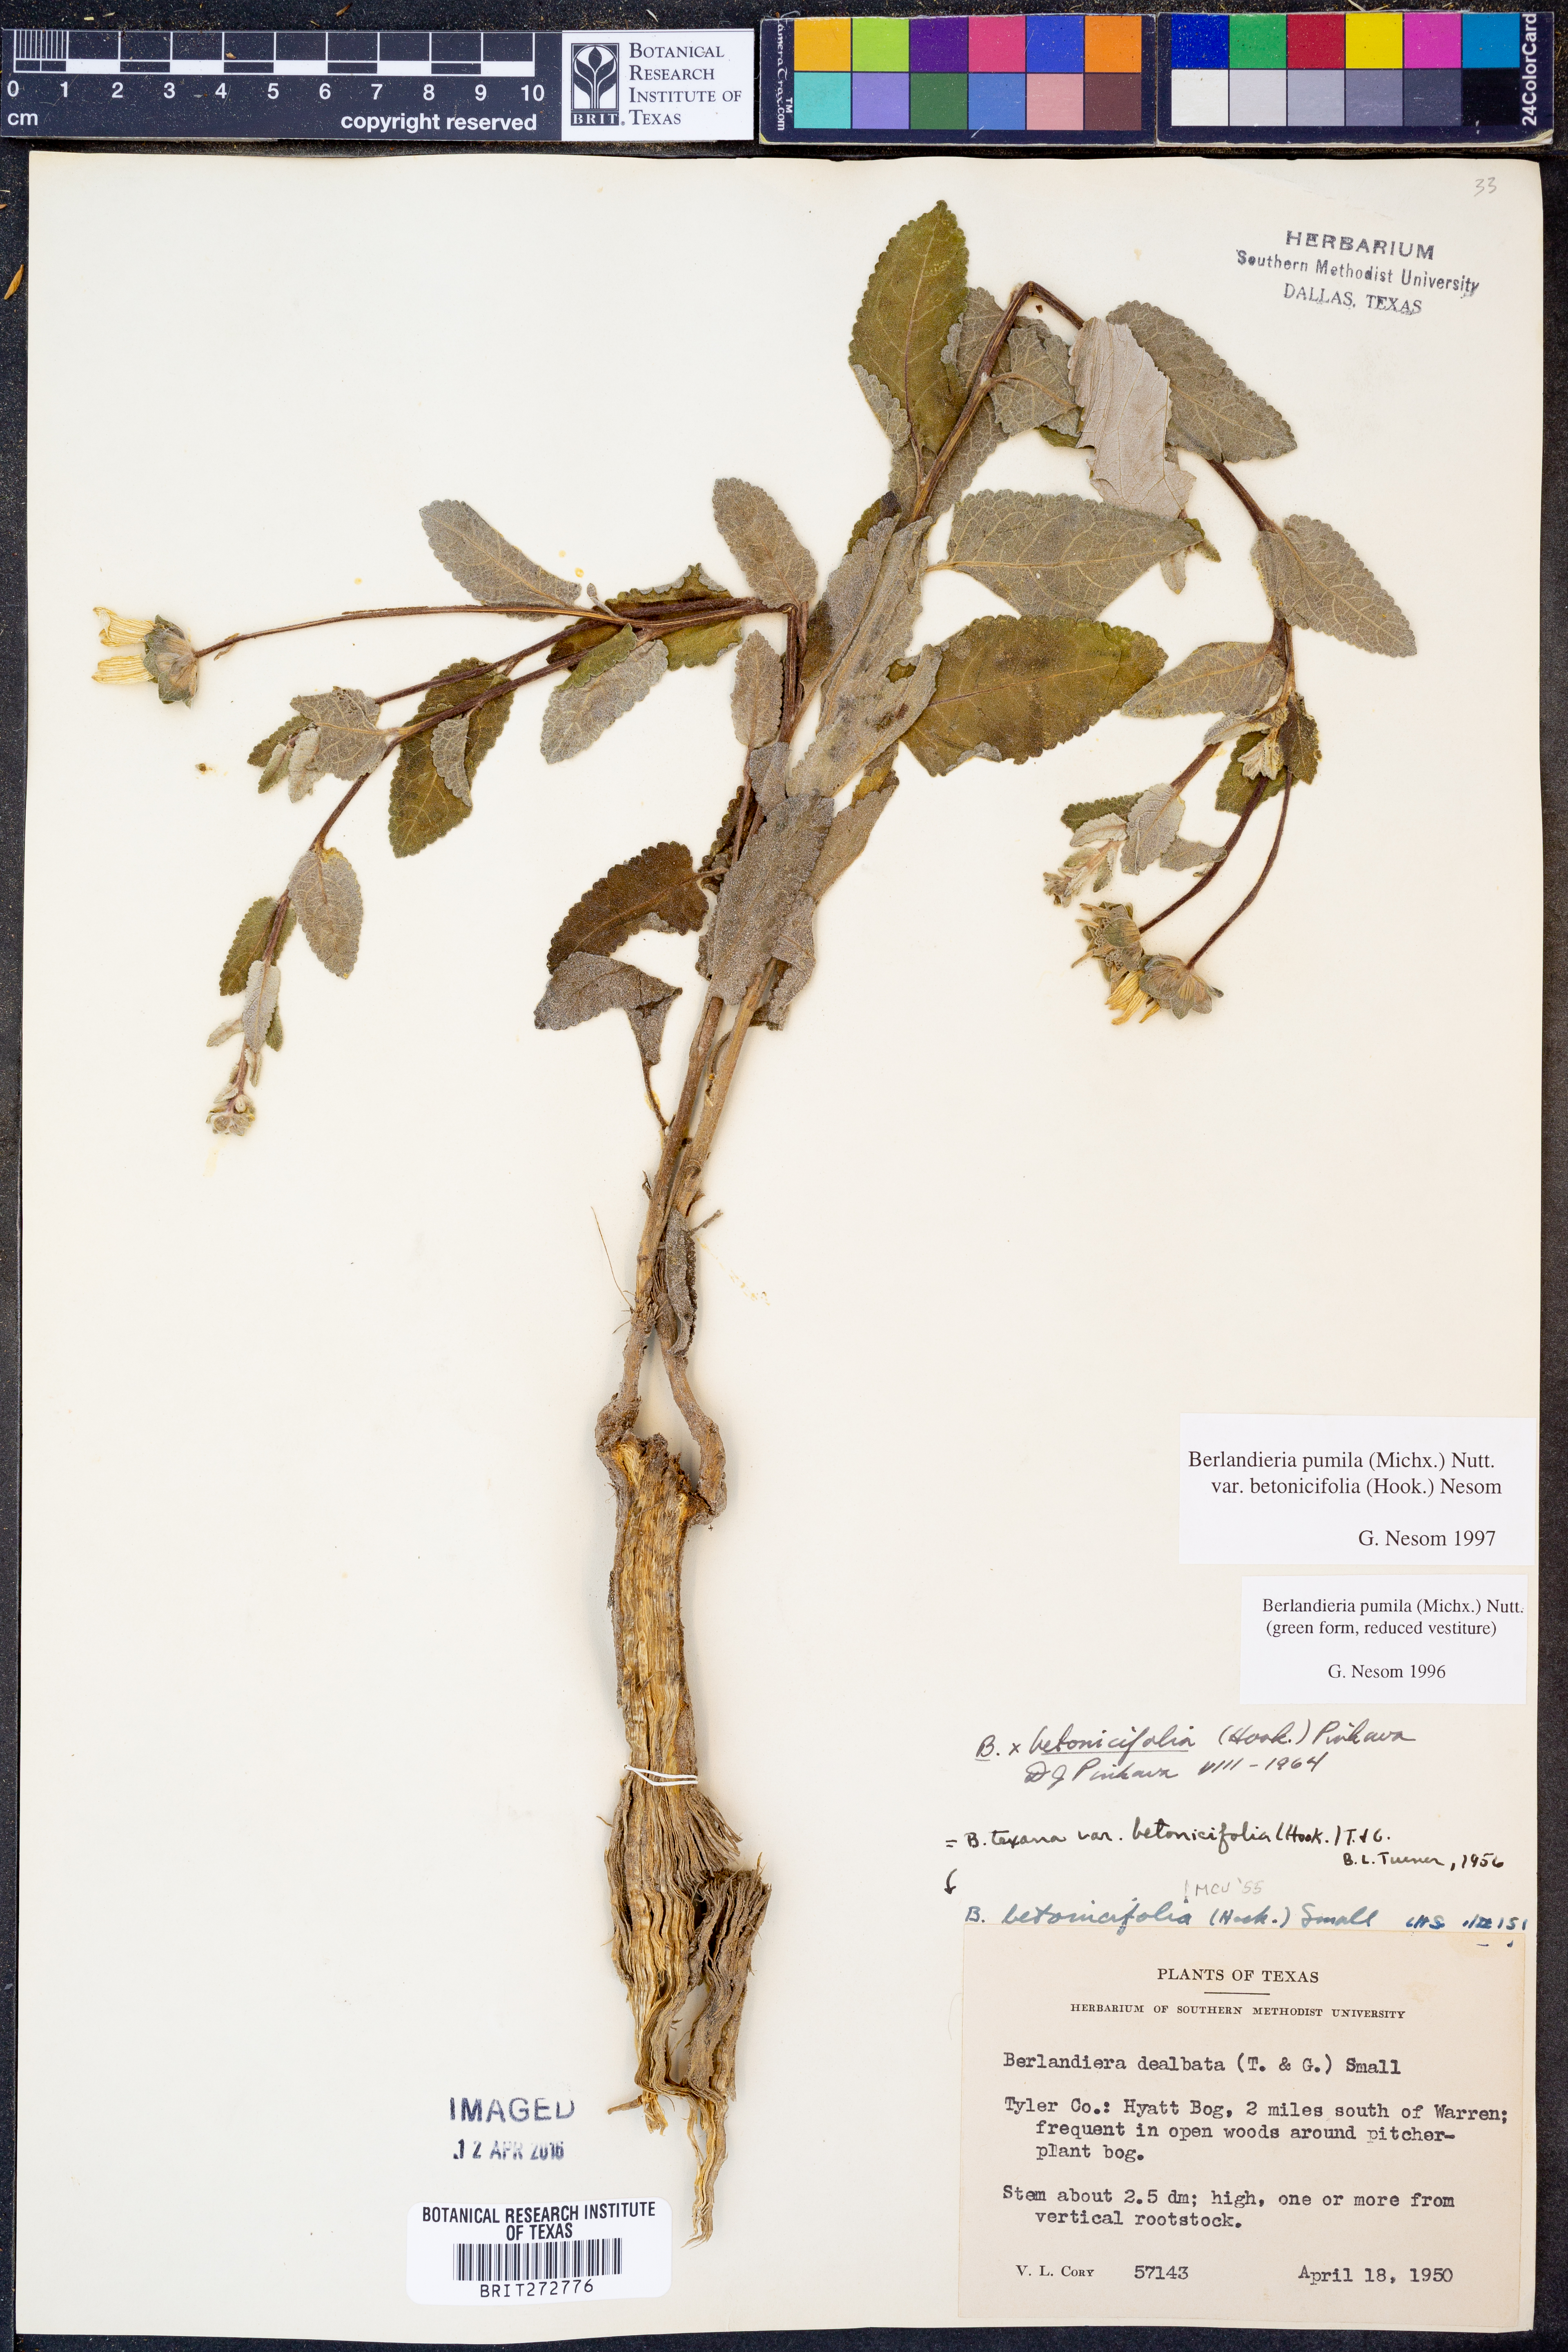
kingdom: Plantae
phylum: Tracheophyta
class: Magnoliopsida
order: Asterales
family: Asteraceae
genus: Berlandiera
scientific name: Berlandiera pumila
